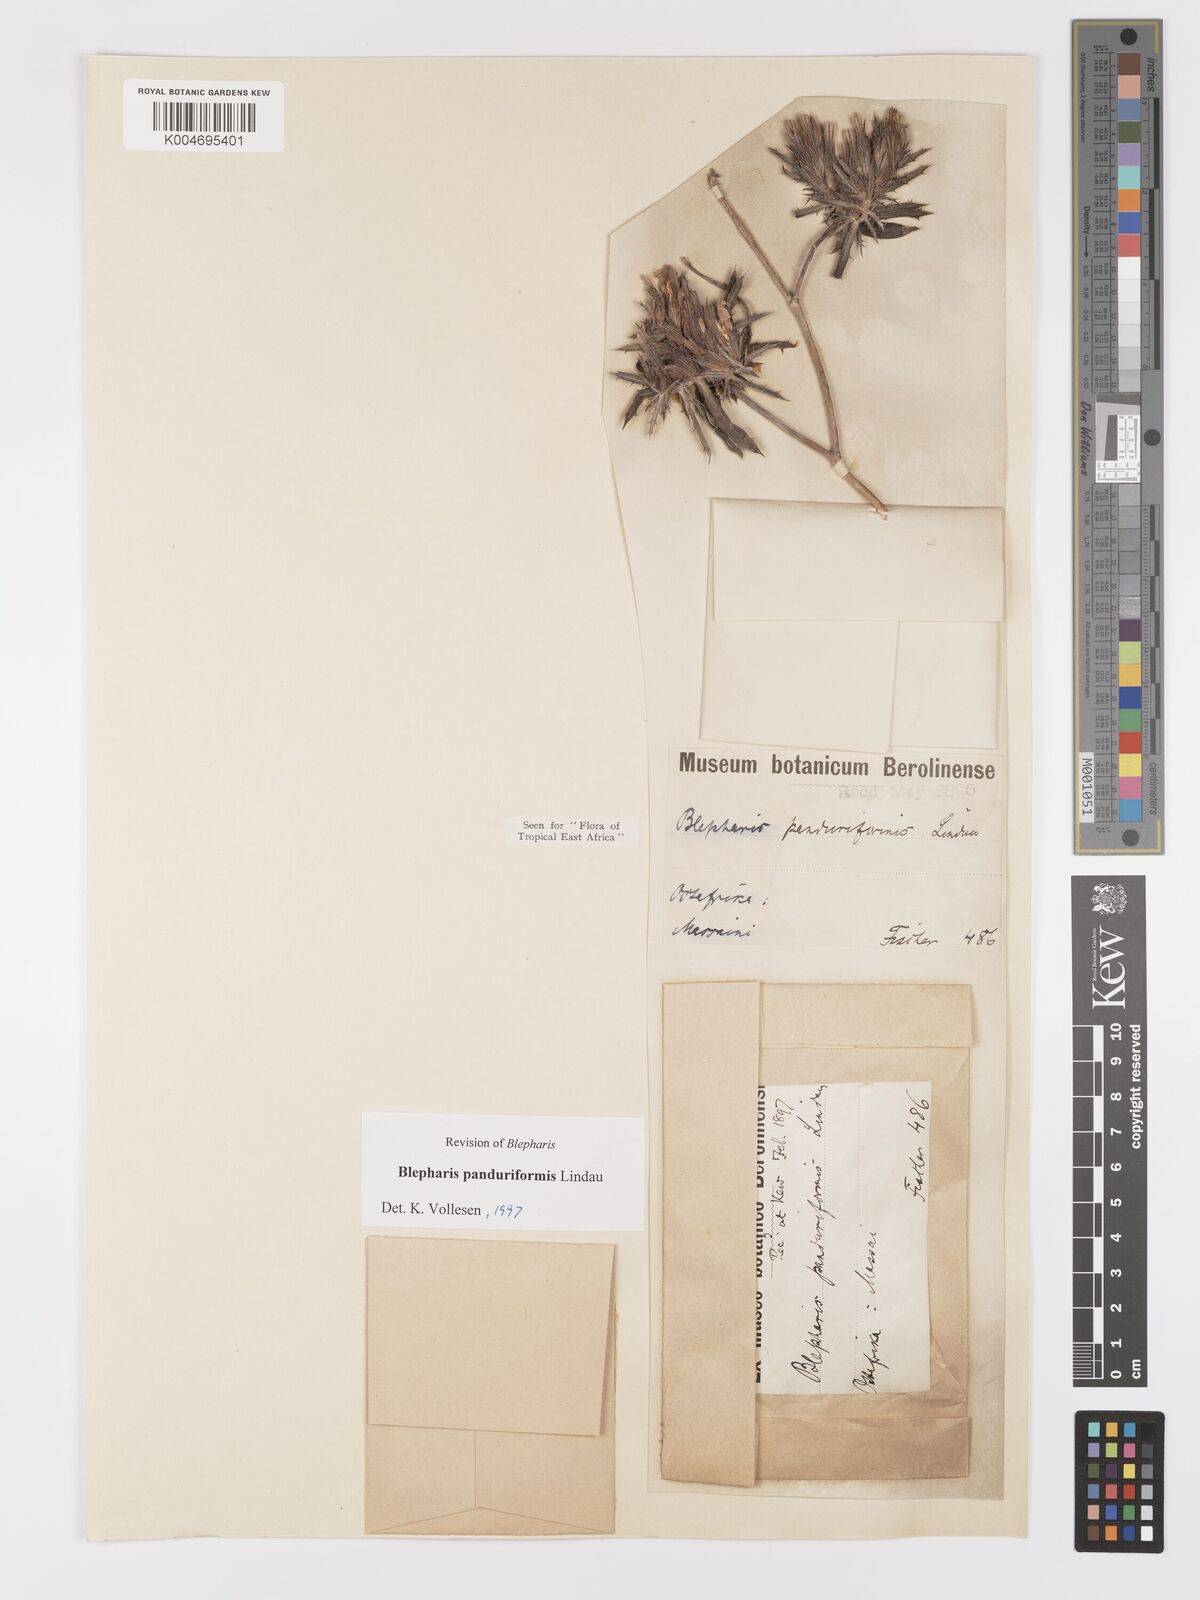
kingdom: Plantae
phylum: Tracheophyta
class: Magnoliopsida
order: Lamiales
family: Acanthaceae
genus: Blepharis
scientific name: Blepharis panduriformis
